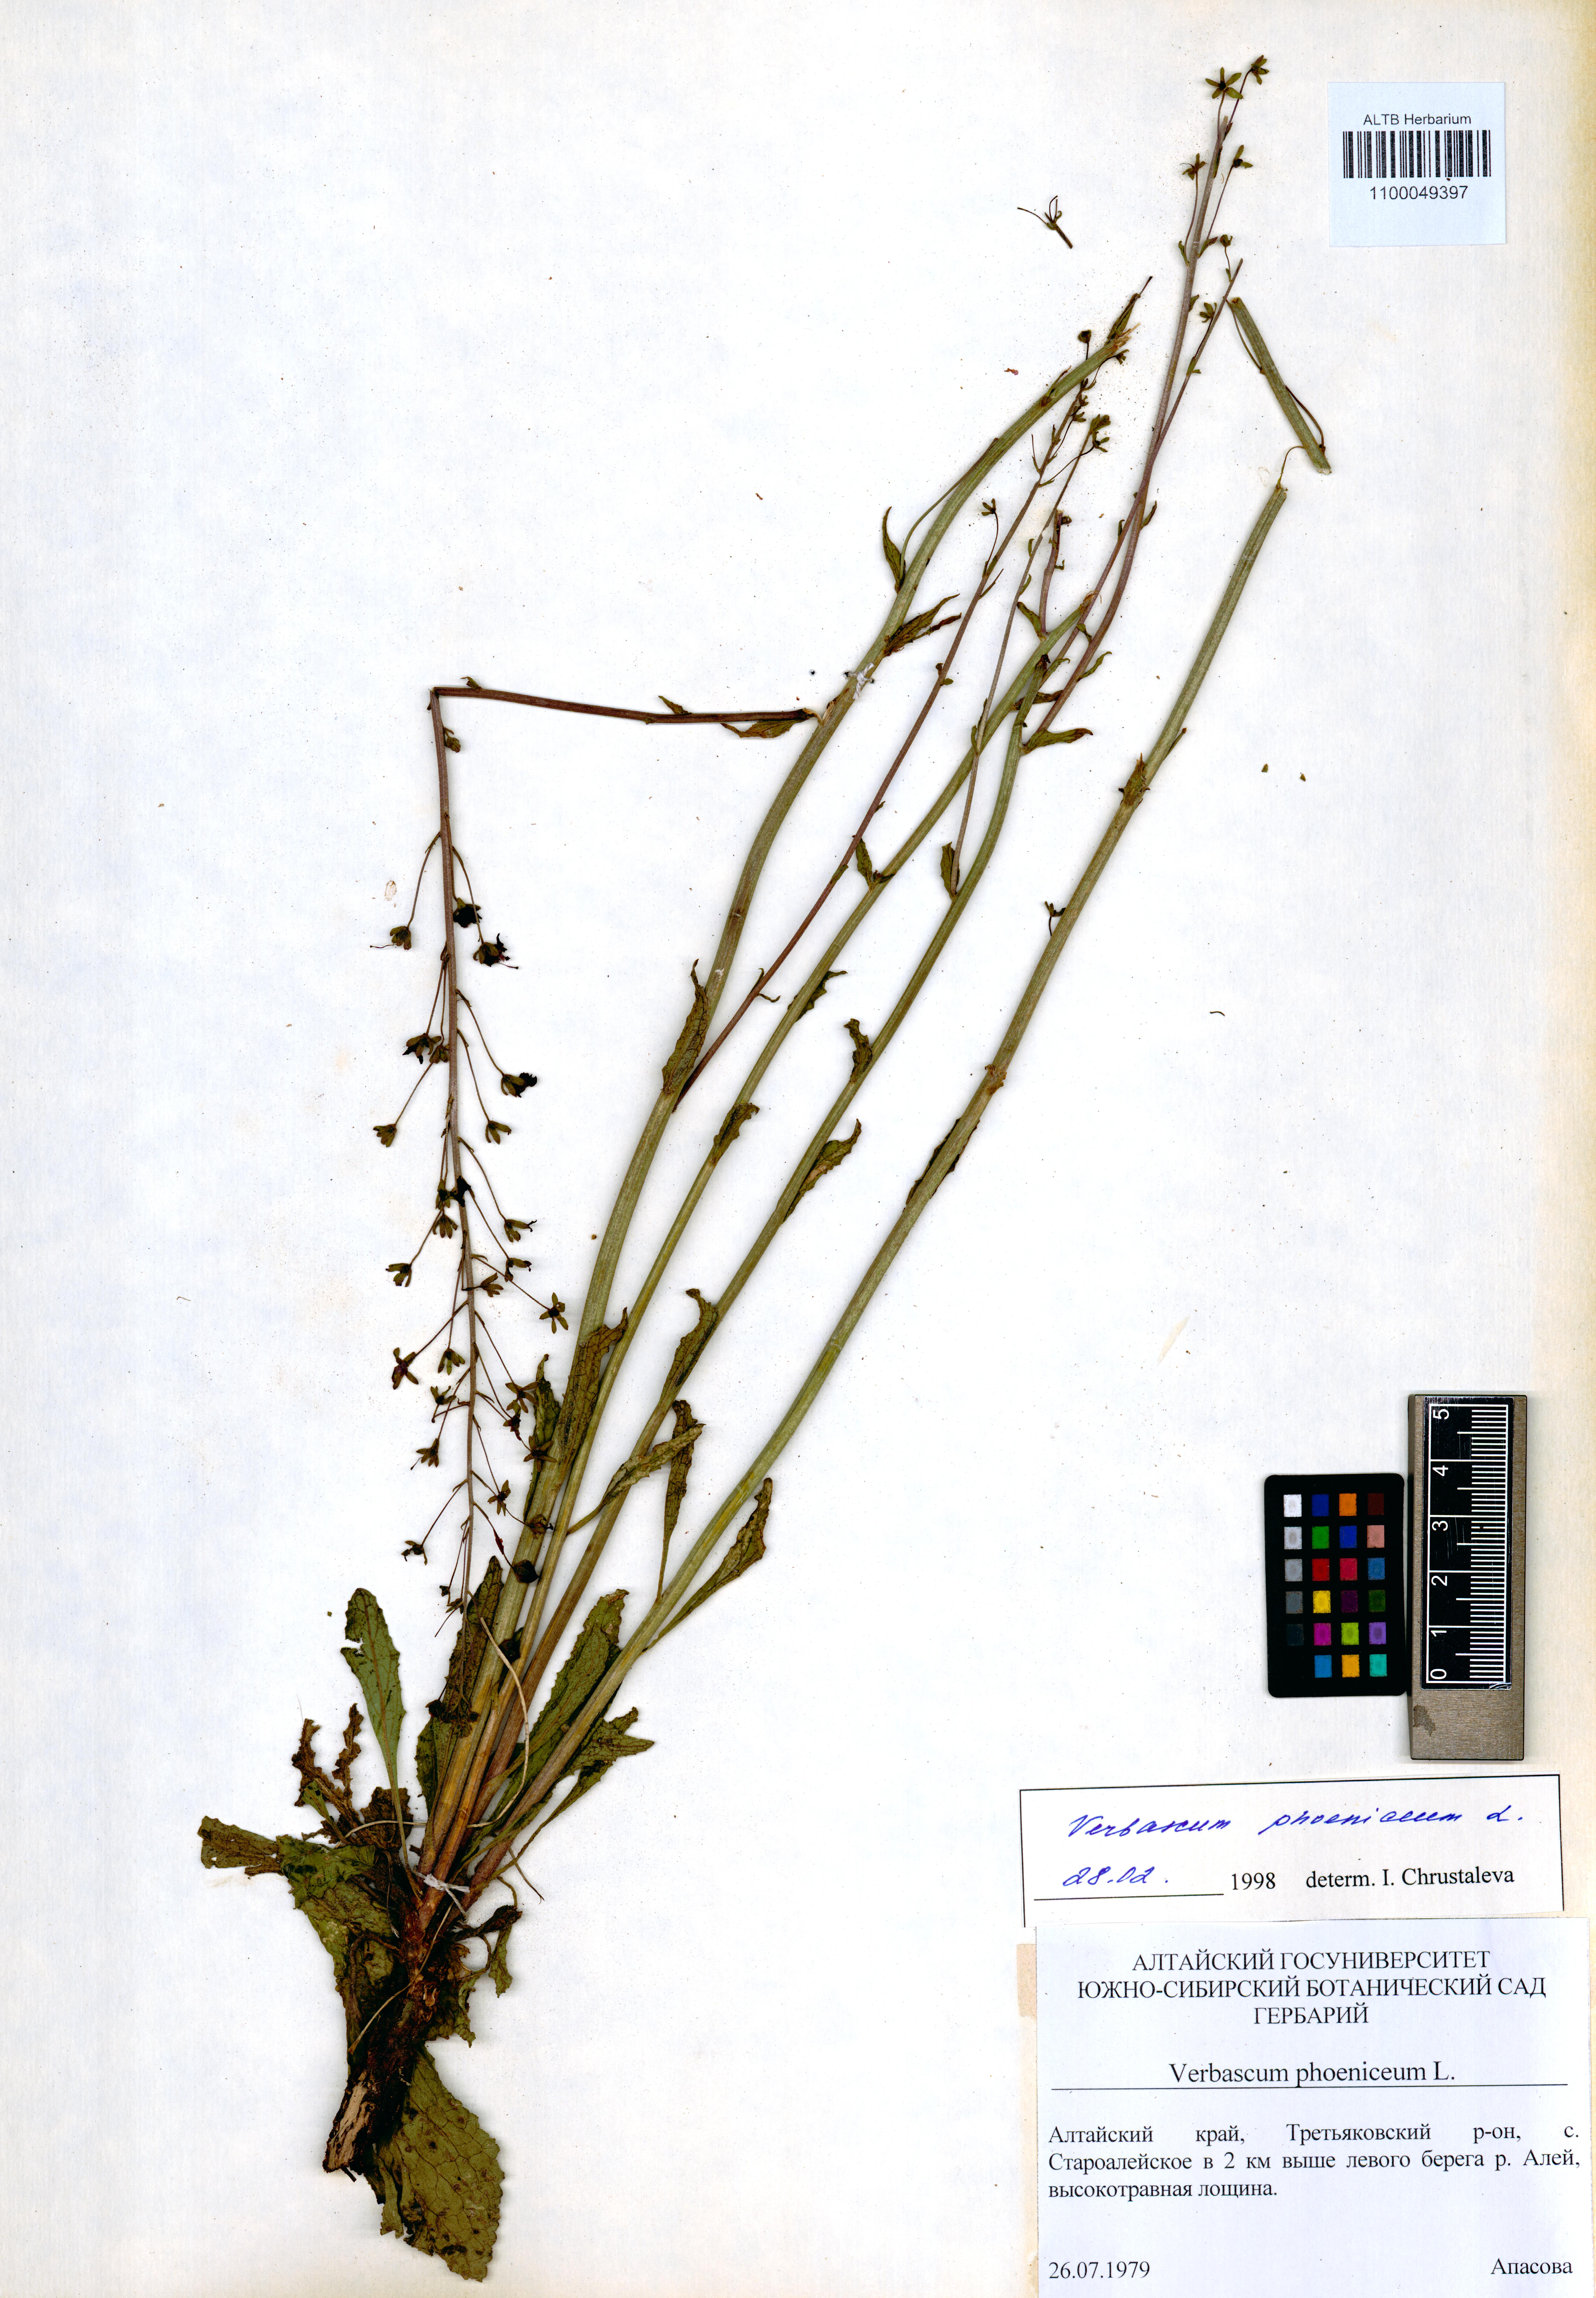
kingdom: Plantae
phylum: Tracheophyta
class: Magnoliopsida
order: Lamiales
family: Scrophulariaceae
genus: Verbascum
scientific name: Verbascum phoeniceum
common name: Purple mullein
